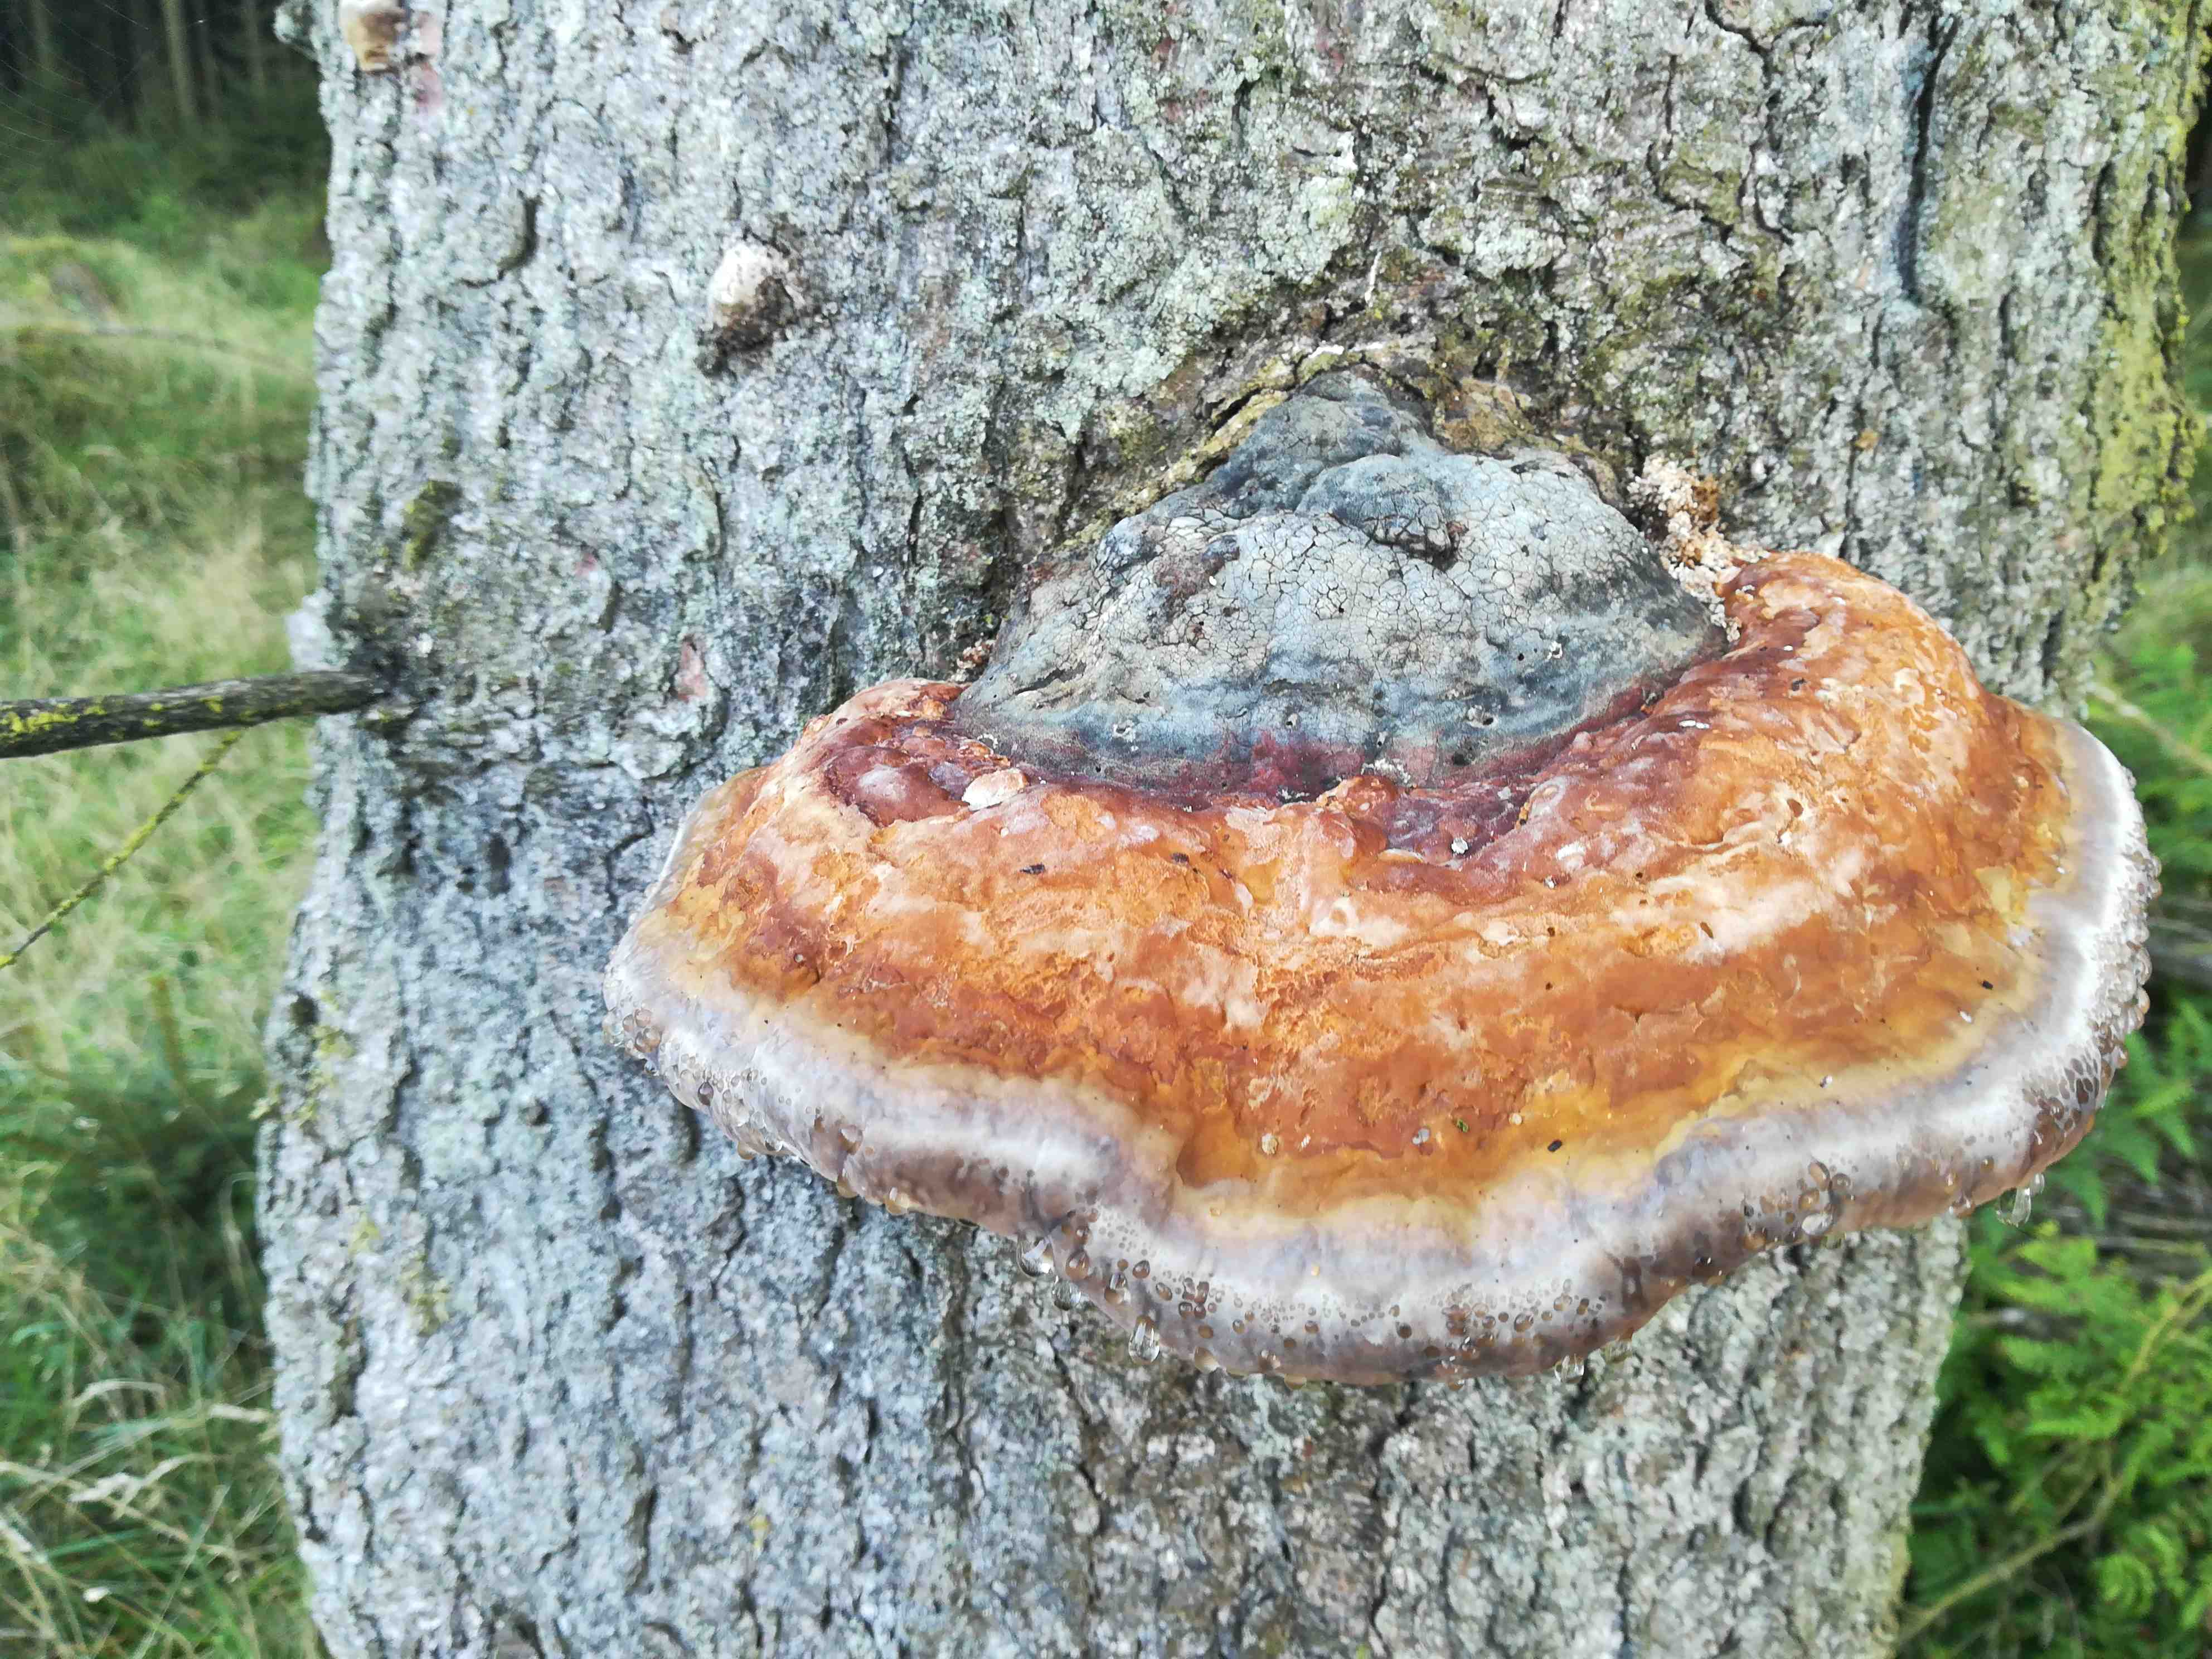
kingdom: Fungi
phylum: Basidiomycota
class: Agaricomycetes
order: Polyporales
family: Fomitopsidaceae
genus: Fomitopsis
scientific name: Fomitopsis pinicola
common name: randbæltet hovporesvamp
